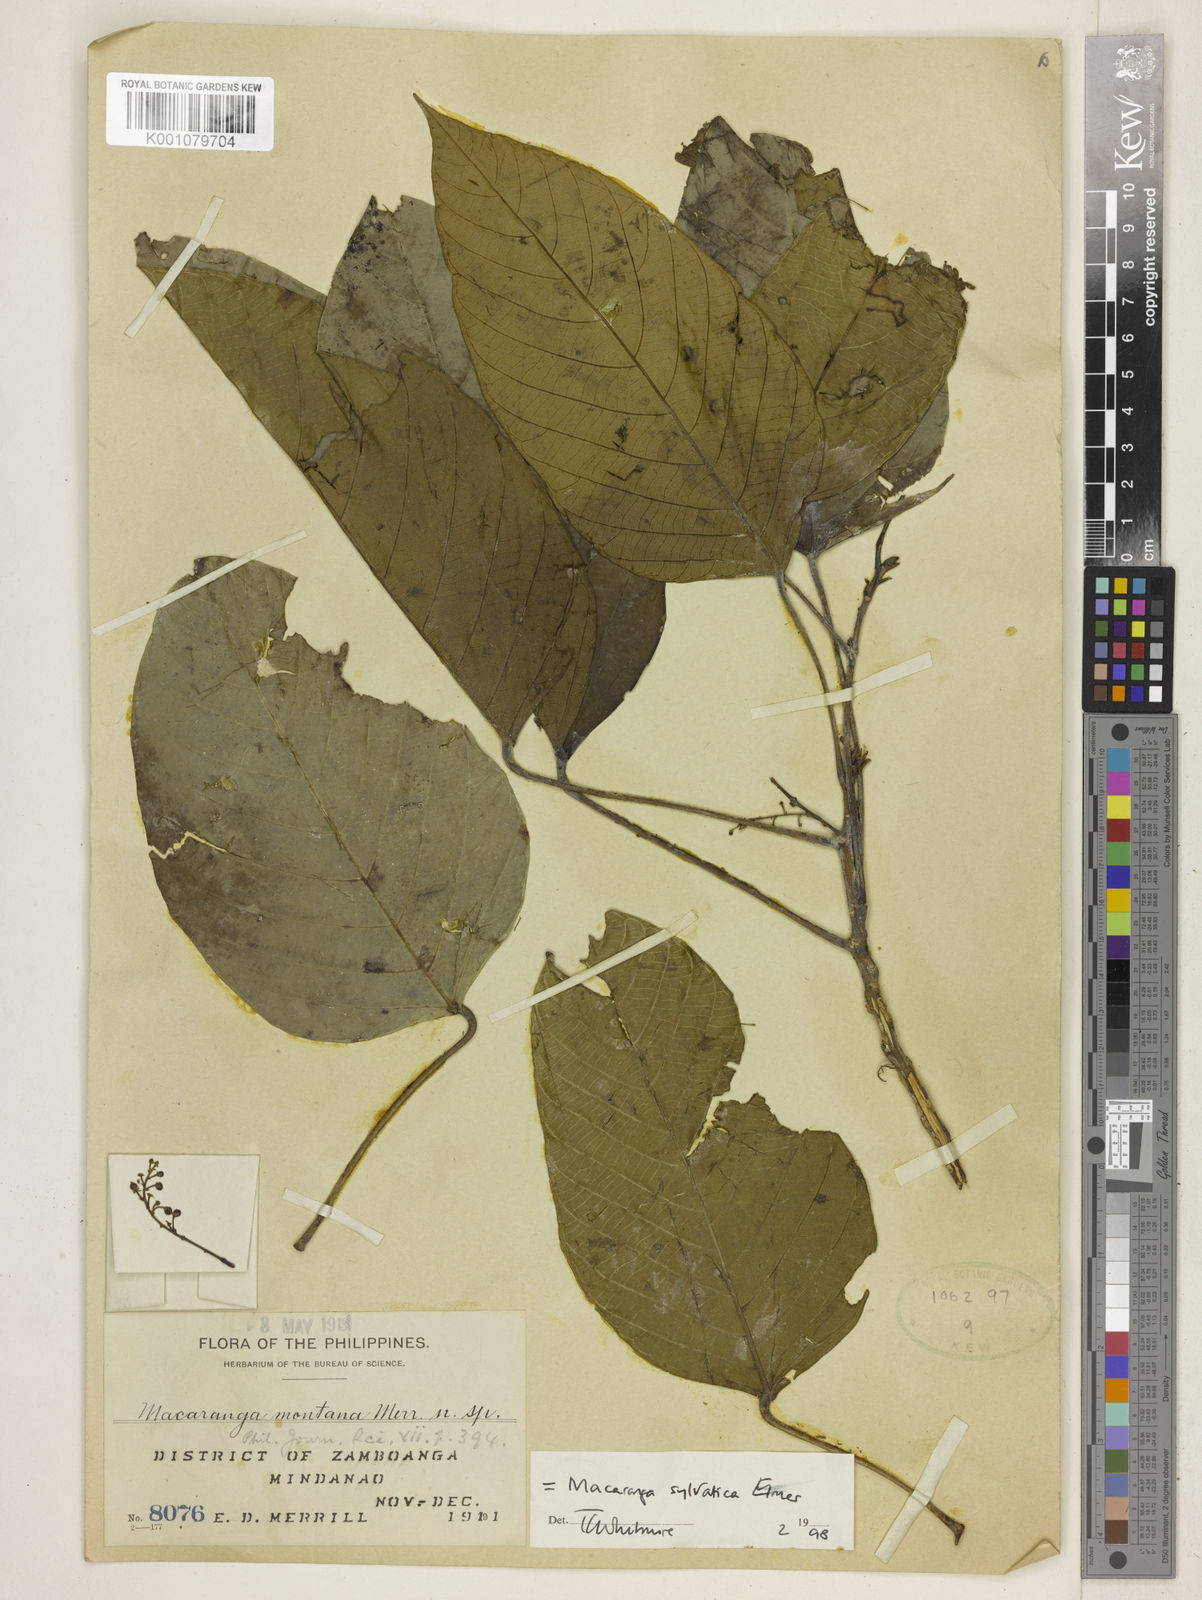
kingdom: Plantae
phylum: Tracheophyta
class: Magnoliopsida
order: Malpighiales
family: Euphorbiaceae
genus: Macaranga
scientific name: Macaranga sylvatica
